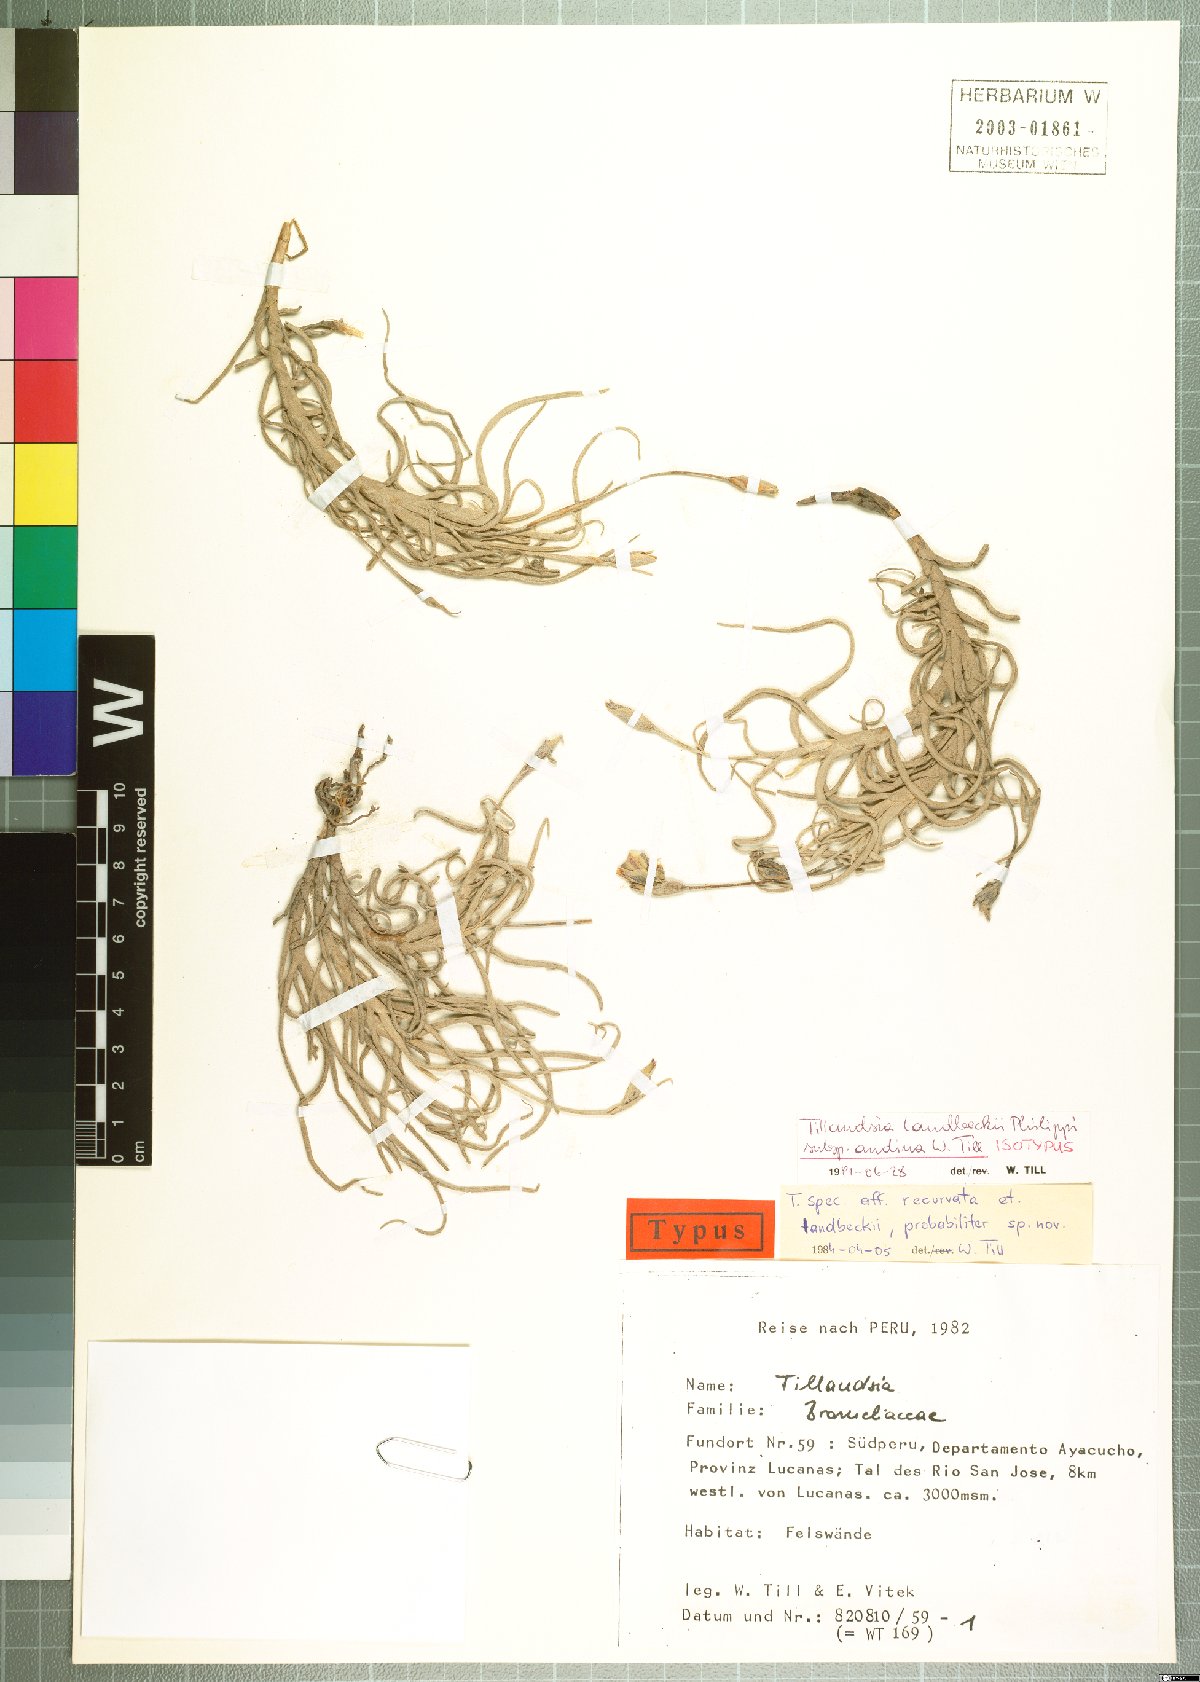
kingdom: Plantae
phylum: Tracheophyta
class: Liliopsida
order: Poales
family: Bromeliaceae
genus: Tillandsia
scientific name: Tillandsia landbeckii
